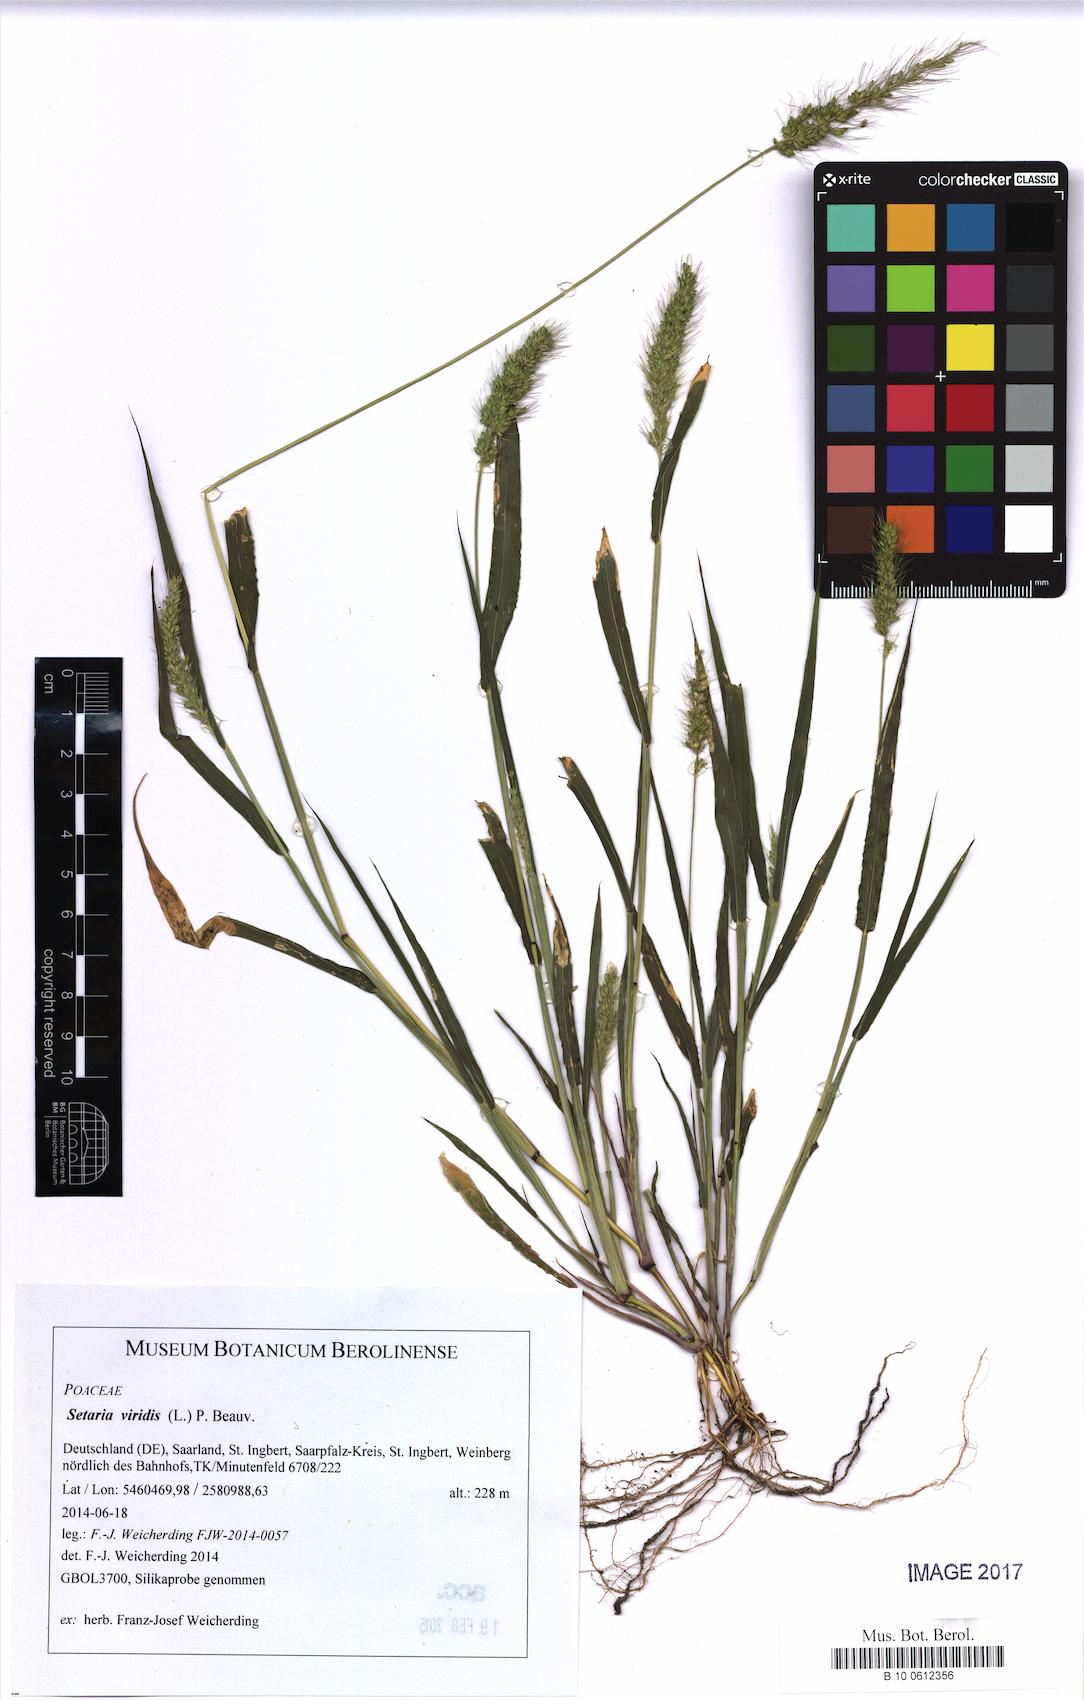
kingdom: Plantae
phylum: Tracheophyta
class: Liliopsida
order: Poales
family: Poaceae
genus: Setaria
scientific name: Setaria viridis
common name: Green bristlegrass
